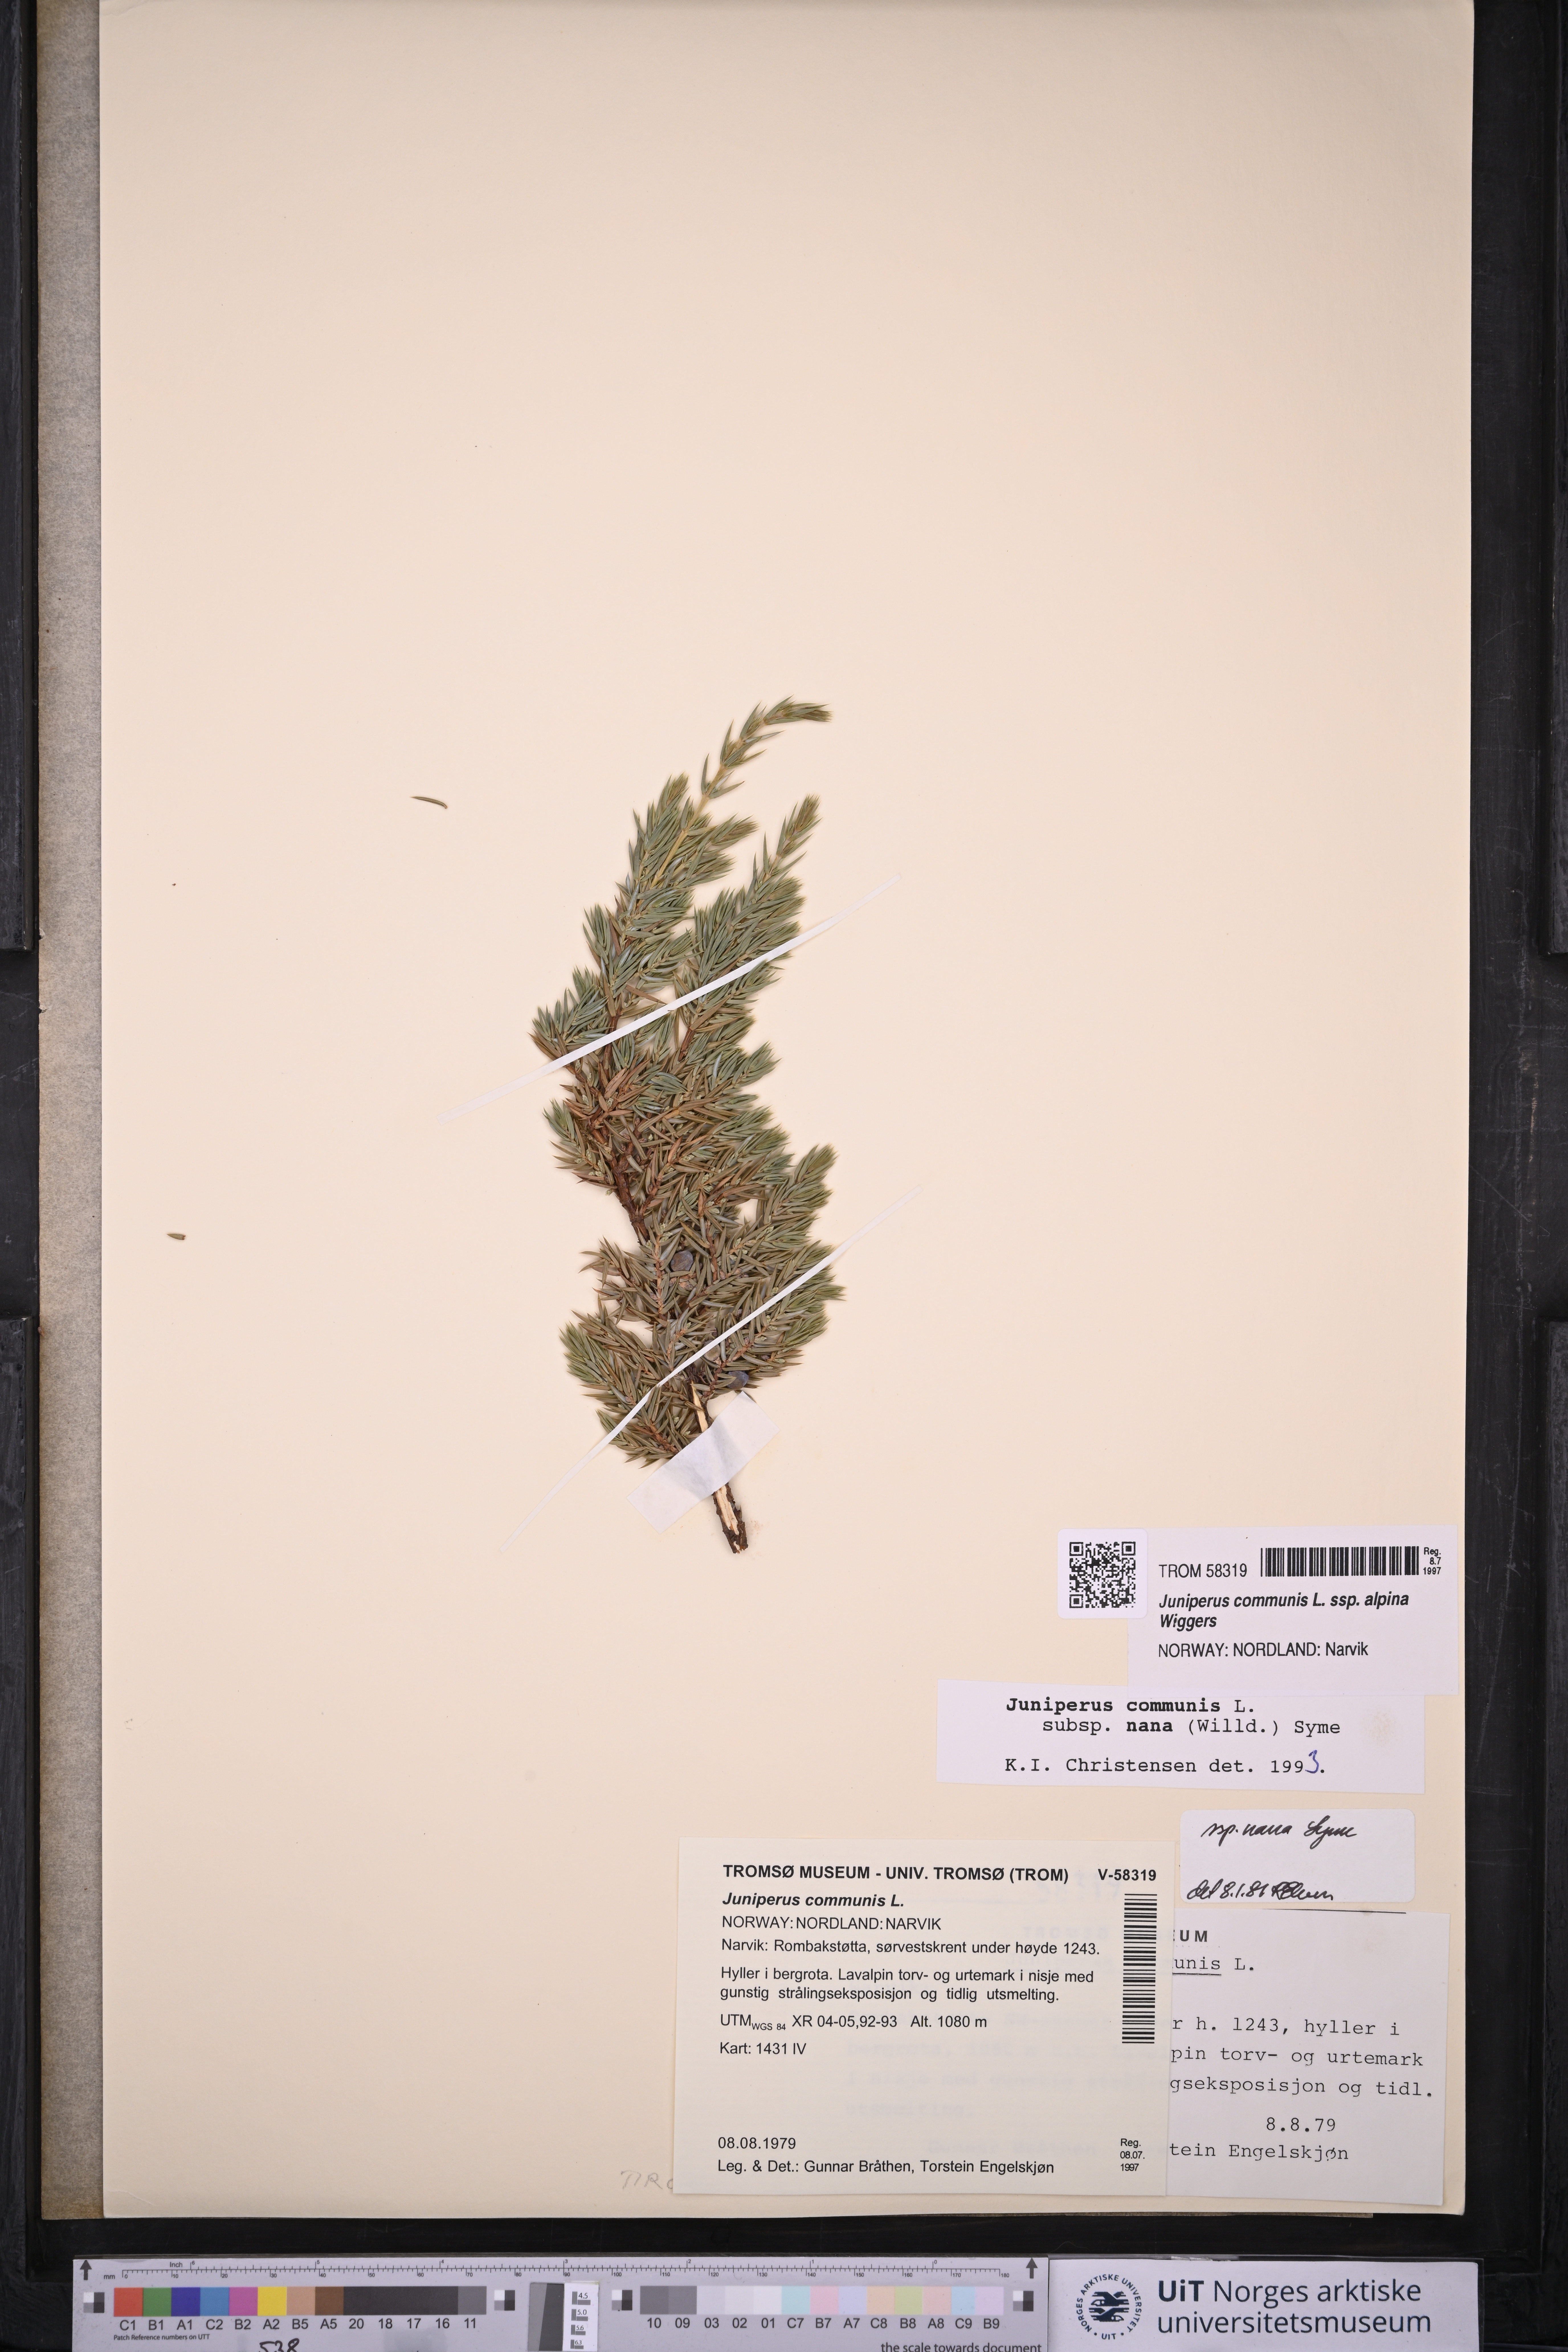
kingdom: Plantae
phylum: Tracheophyta
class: Pinopsida
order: Pinales
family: Cupressaceae
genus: Juniperus
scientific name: Juniperus communis
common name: Common juniper
